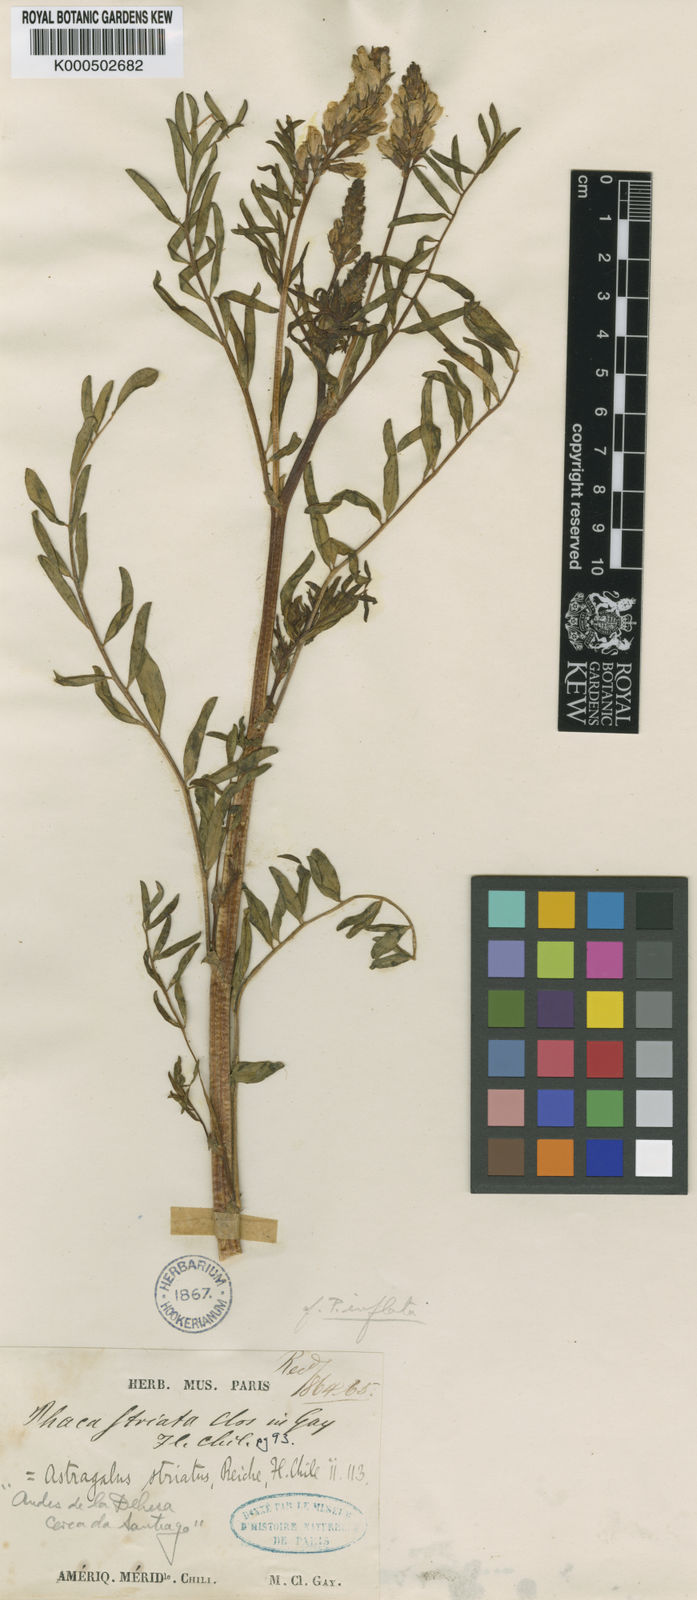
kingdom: Plantae
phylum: Tracheophyta
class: Magnoliopsida
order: Fabales
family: Fabaceae
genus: Astragalus
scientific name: Astragalus
